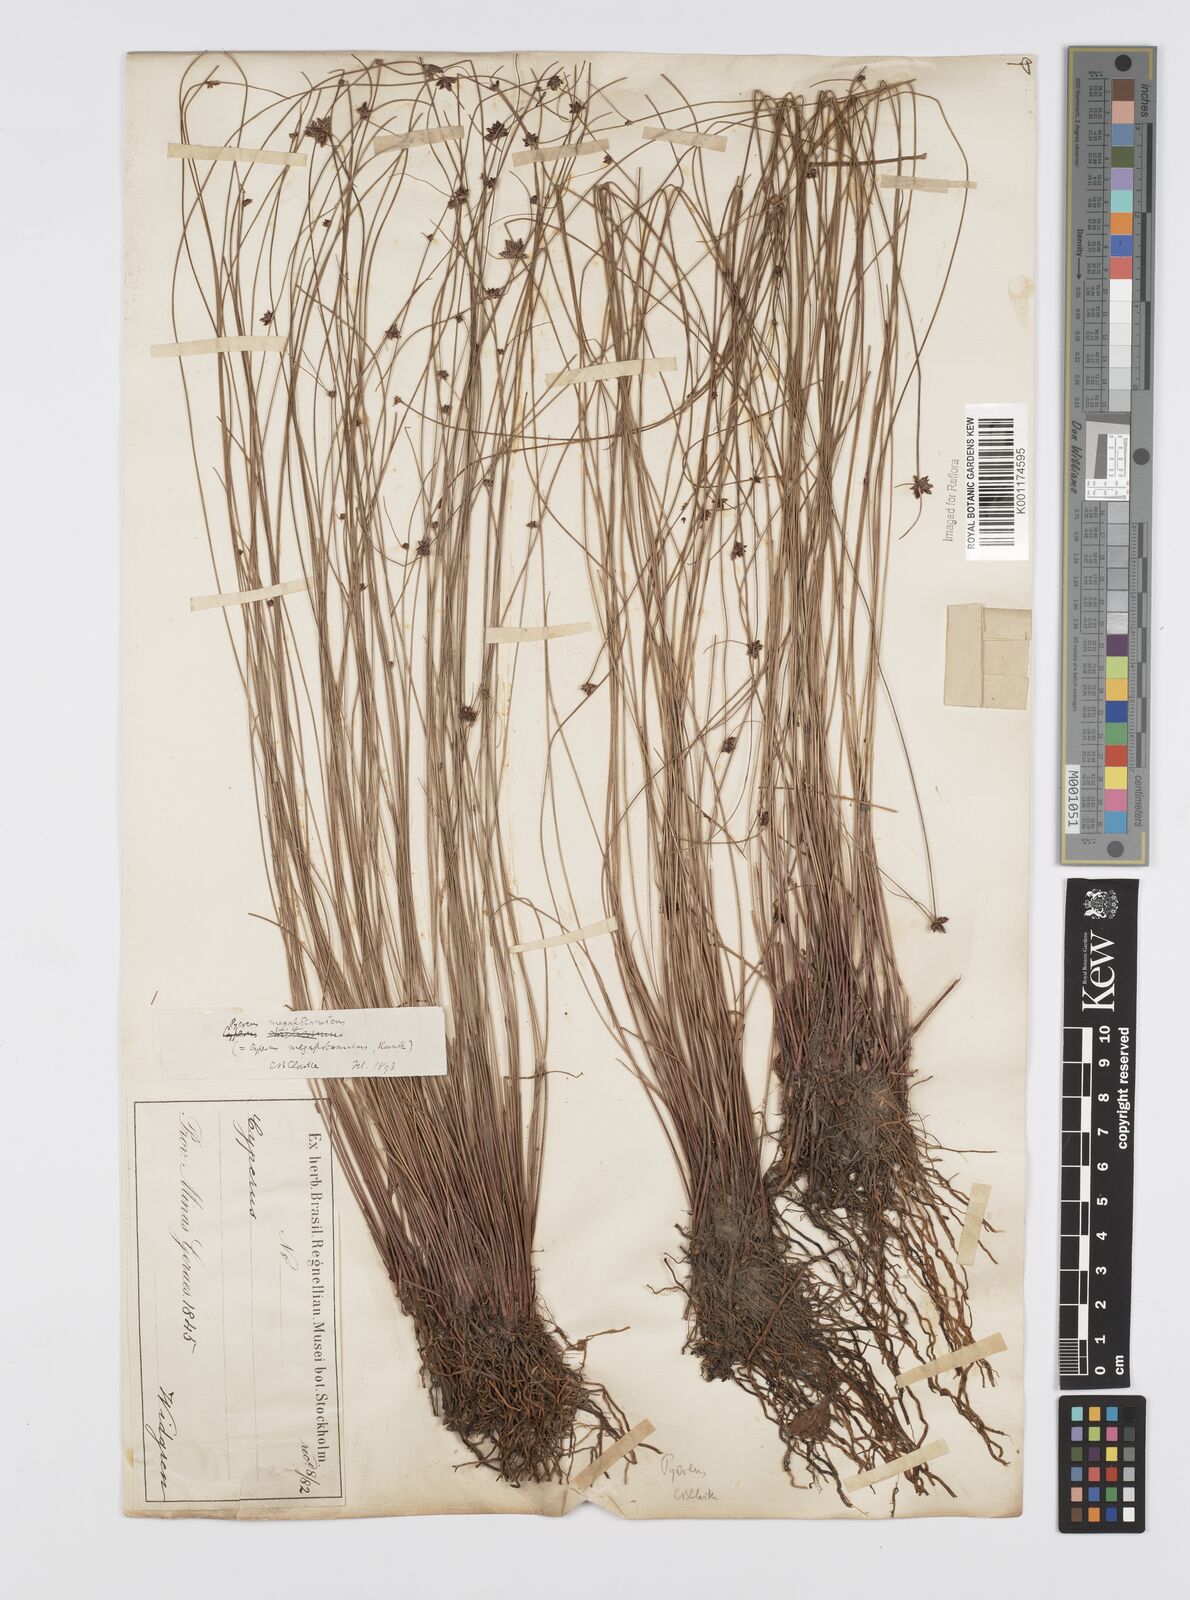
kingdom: Plantae
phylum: Tracheophyta
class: Liliopsida
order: Poales
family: Cyperaceae
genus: Cyperus
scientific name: Cyperus megapotamicus
